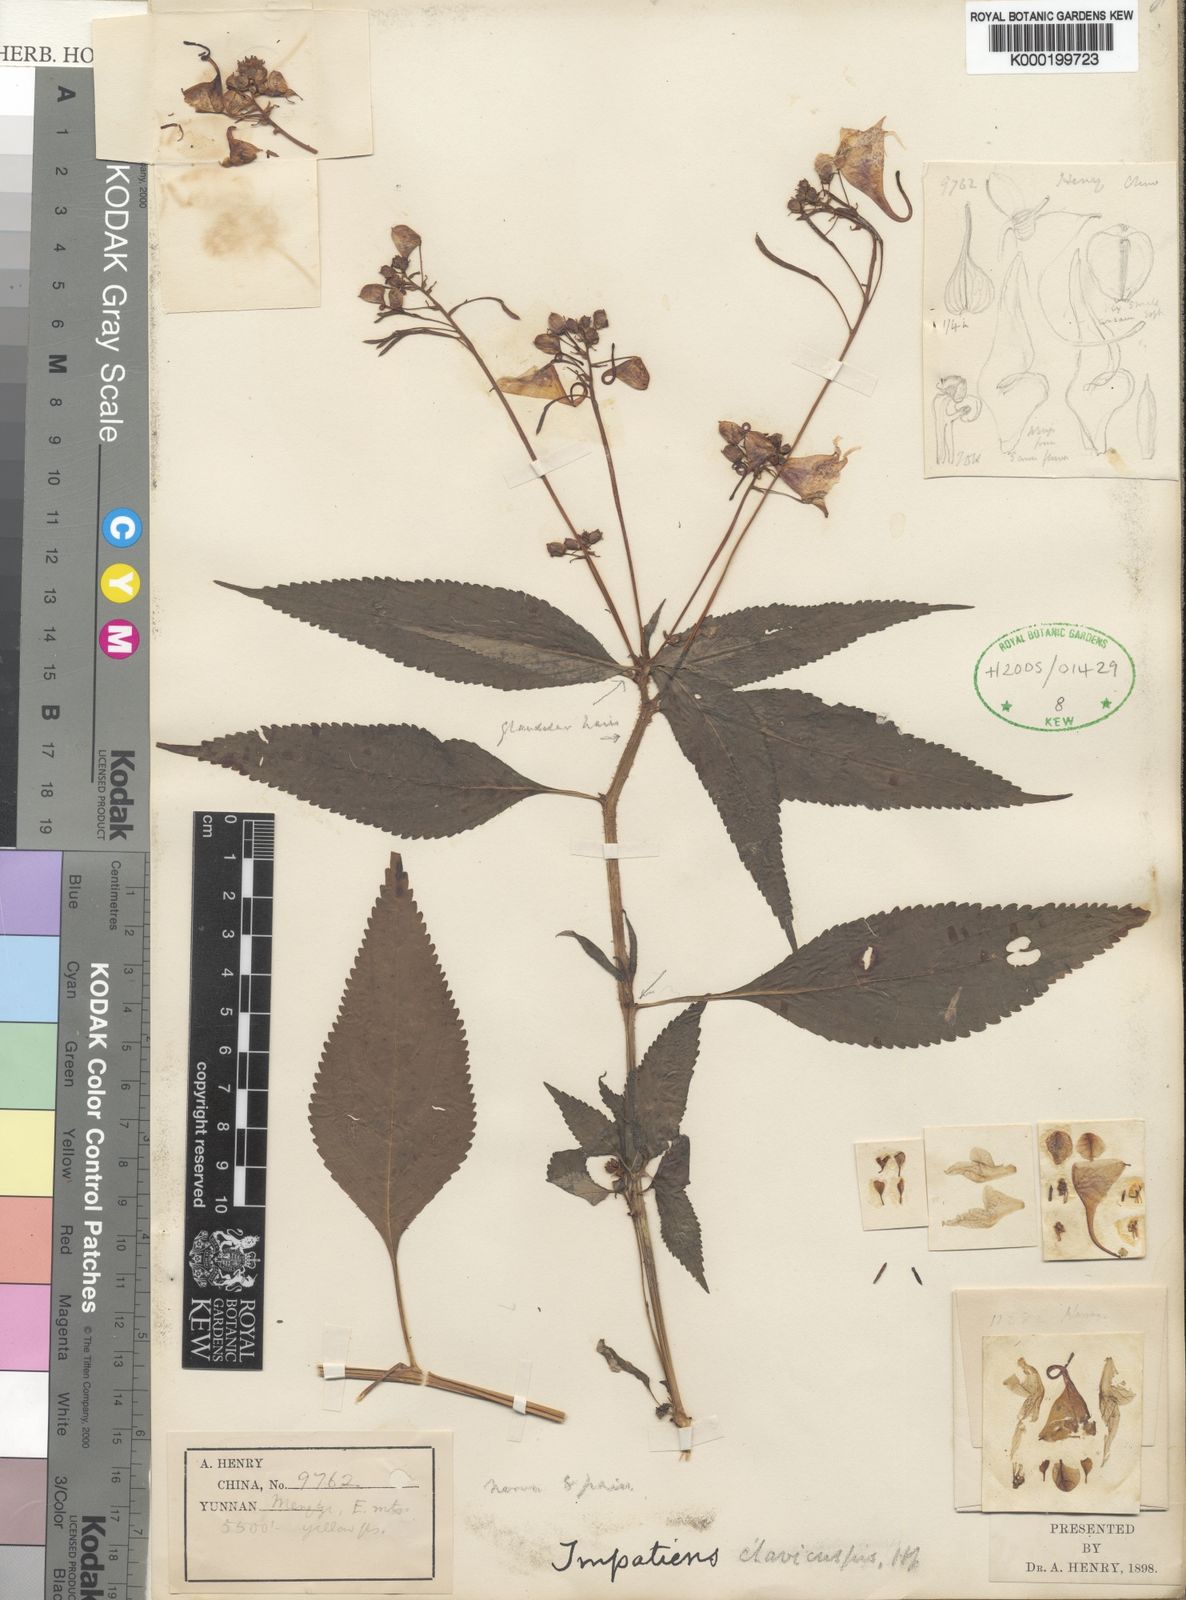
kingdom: Plantae
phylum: Tracheophyta
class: Magnoliopsida
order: Ericales
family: Balsaminaceae
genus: Impatiens
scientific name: Impatiens clavicuspis
